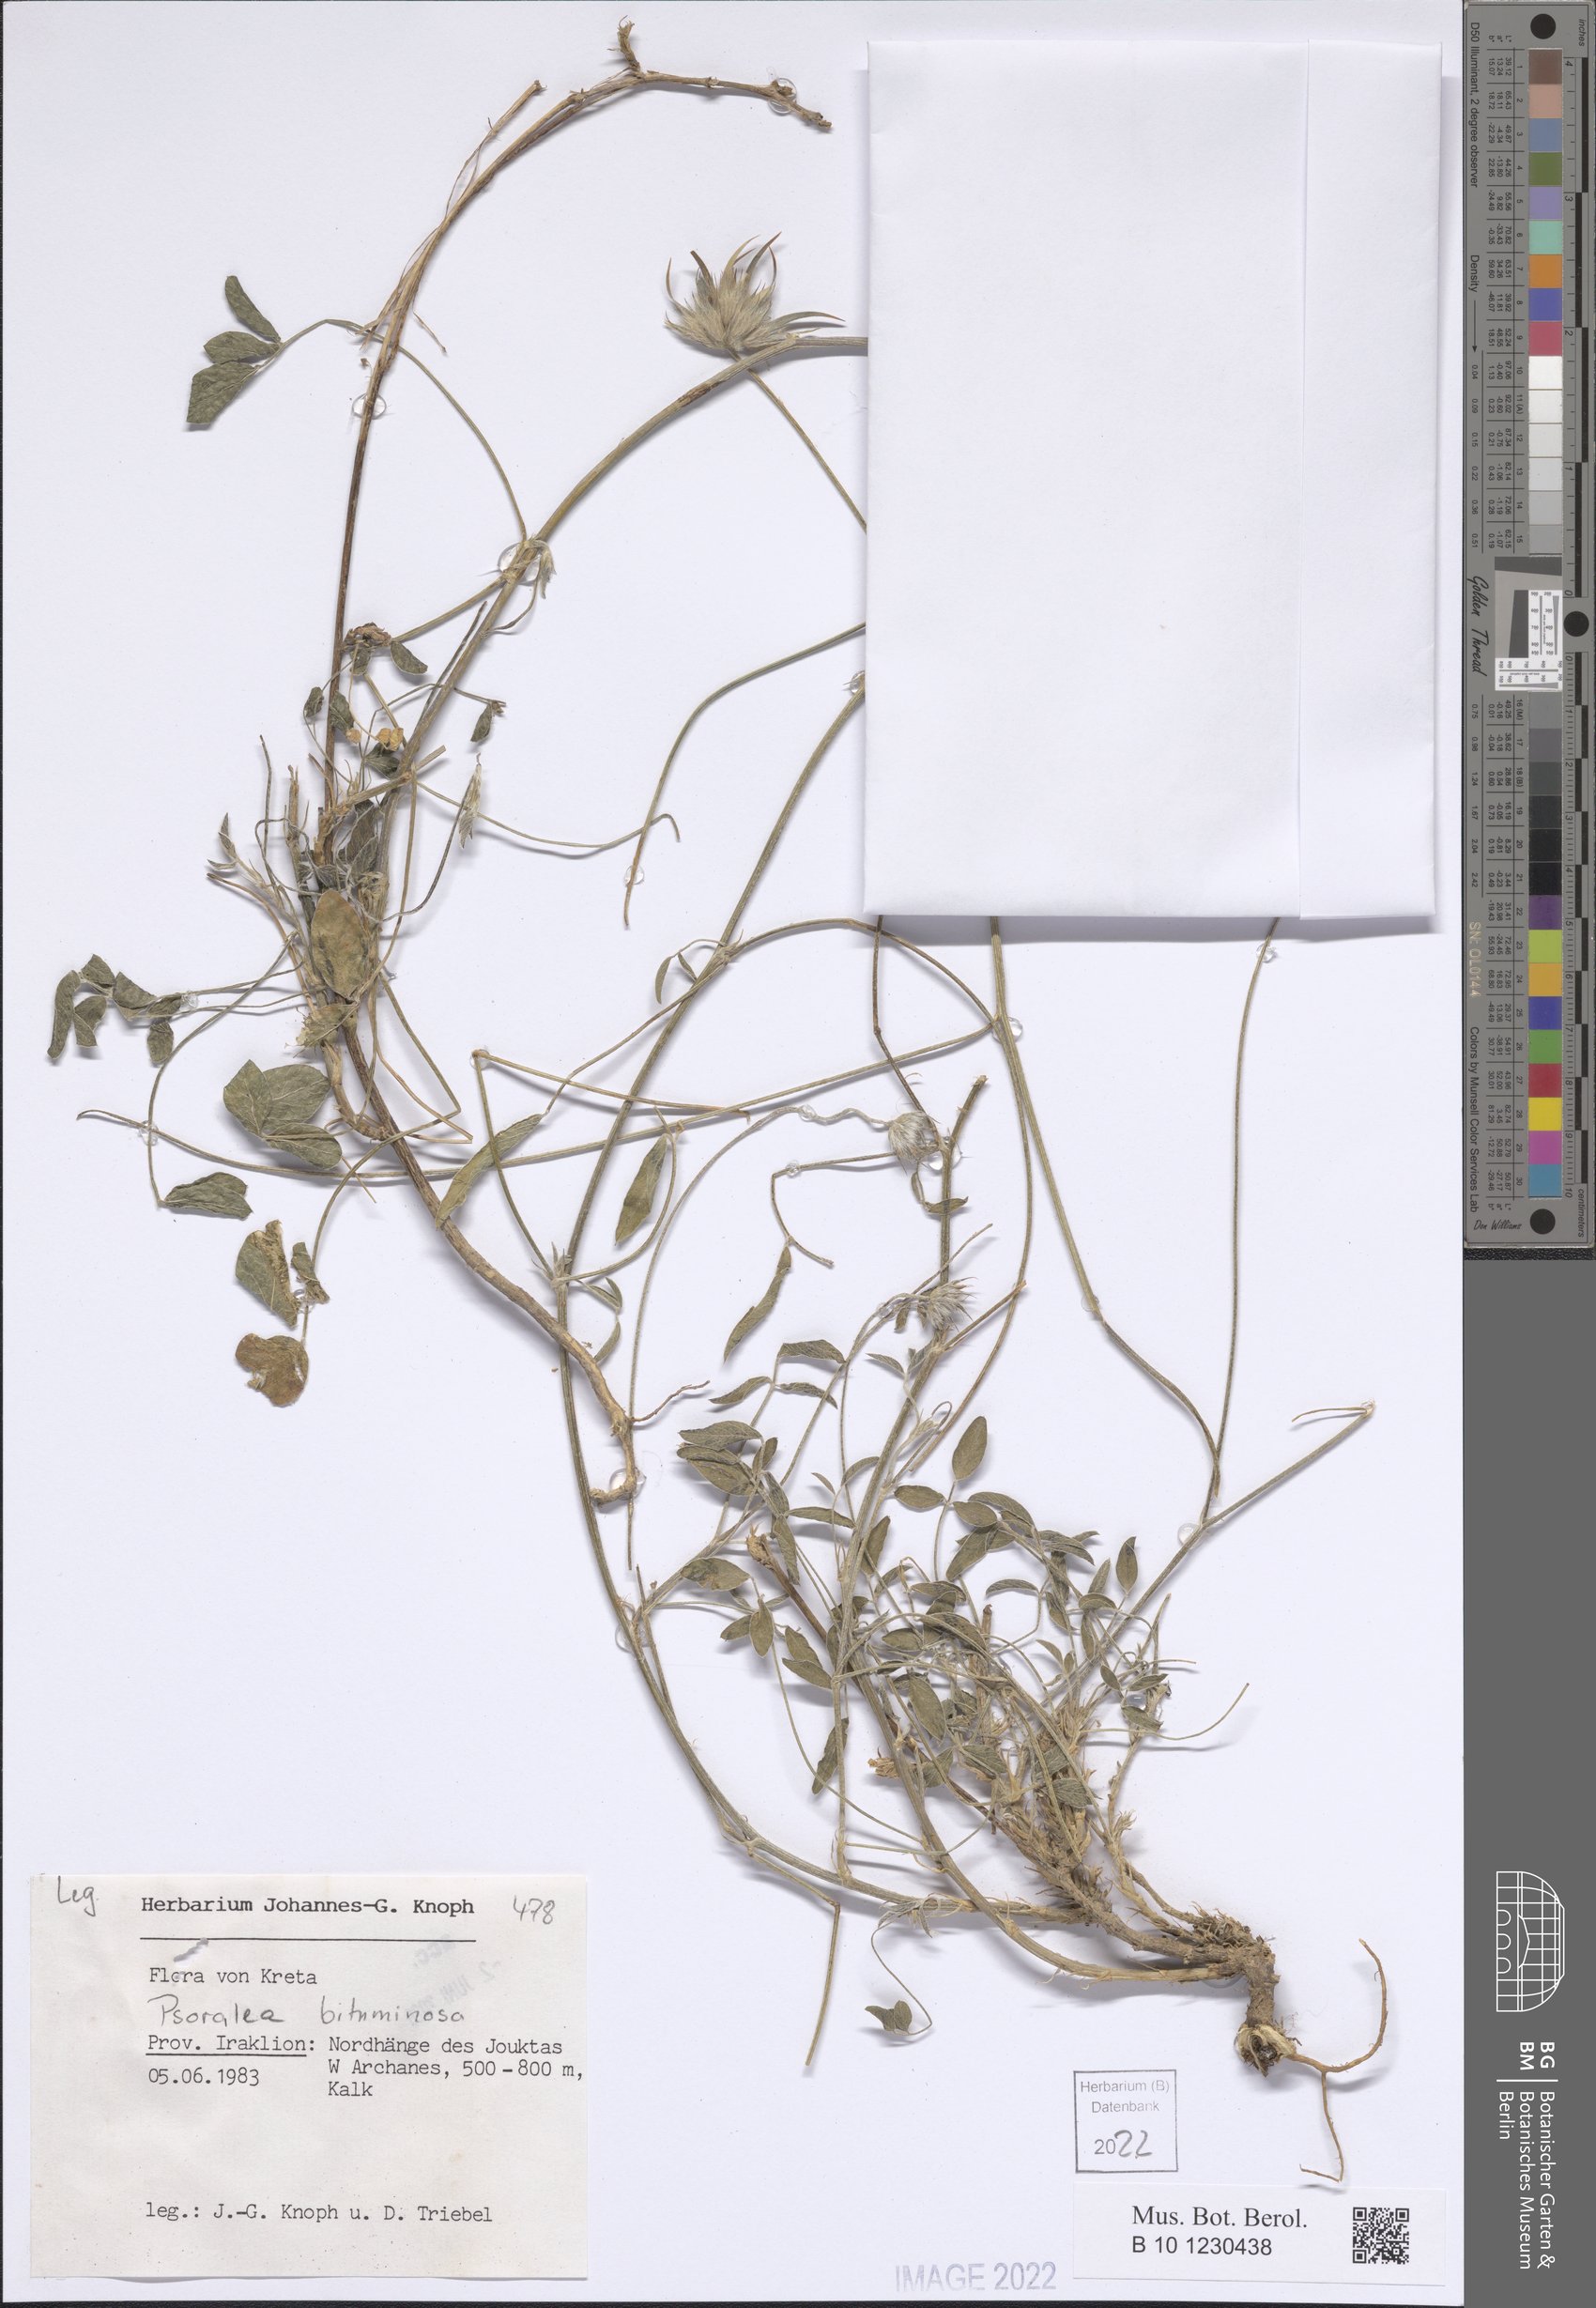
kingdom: Plantae
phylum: Tracheophyta
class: Magnoliopsida
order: Fabales
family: Fabaceae
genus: Bituminaria
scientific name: Bituminaria bituminosa
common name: Arabian pea
